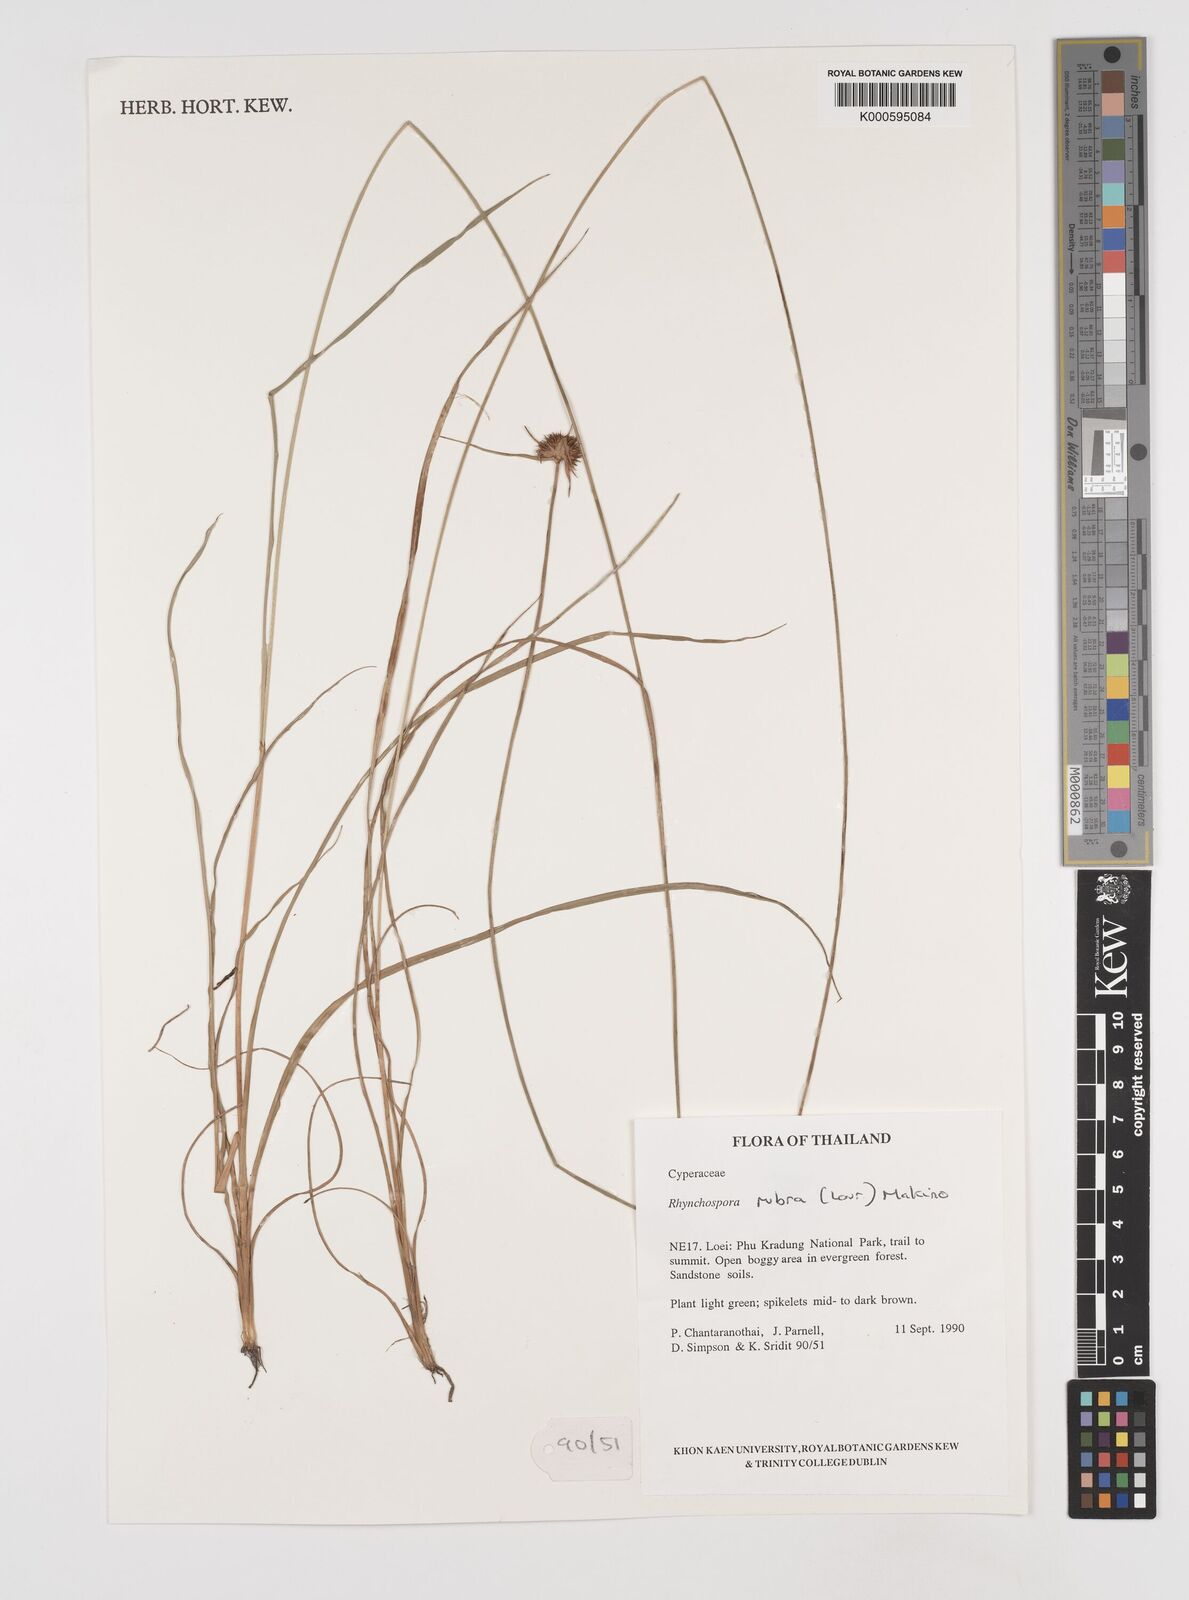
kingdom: Plantae
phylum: Tracheophyta
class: Liliopsida
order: Poales
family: Cyperaceae
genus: Rhynchospora
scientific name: Rhynchospora rubra
